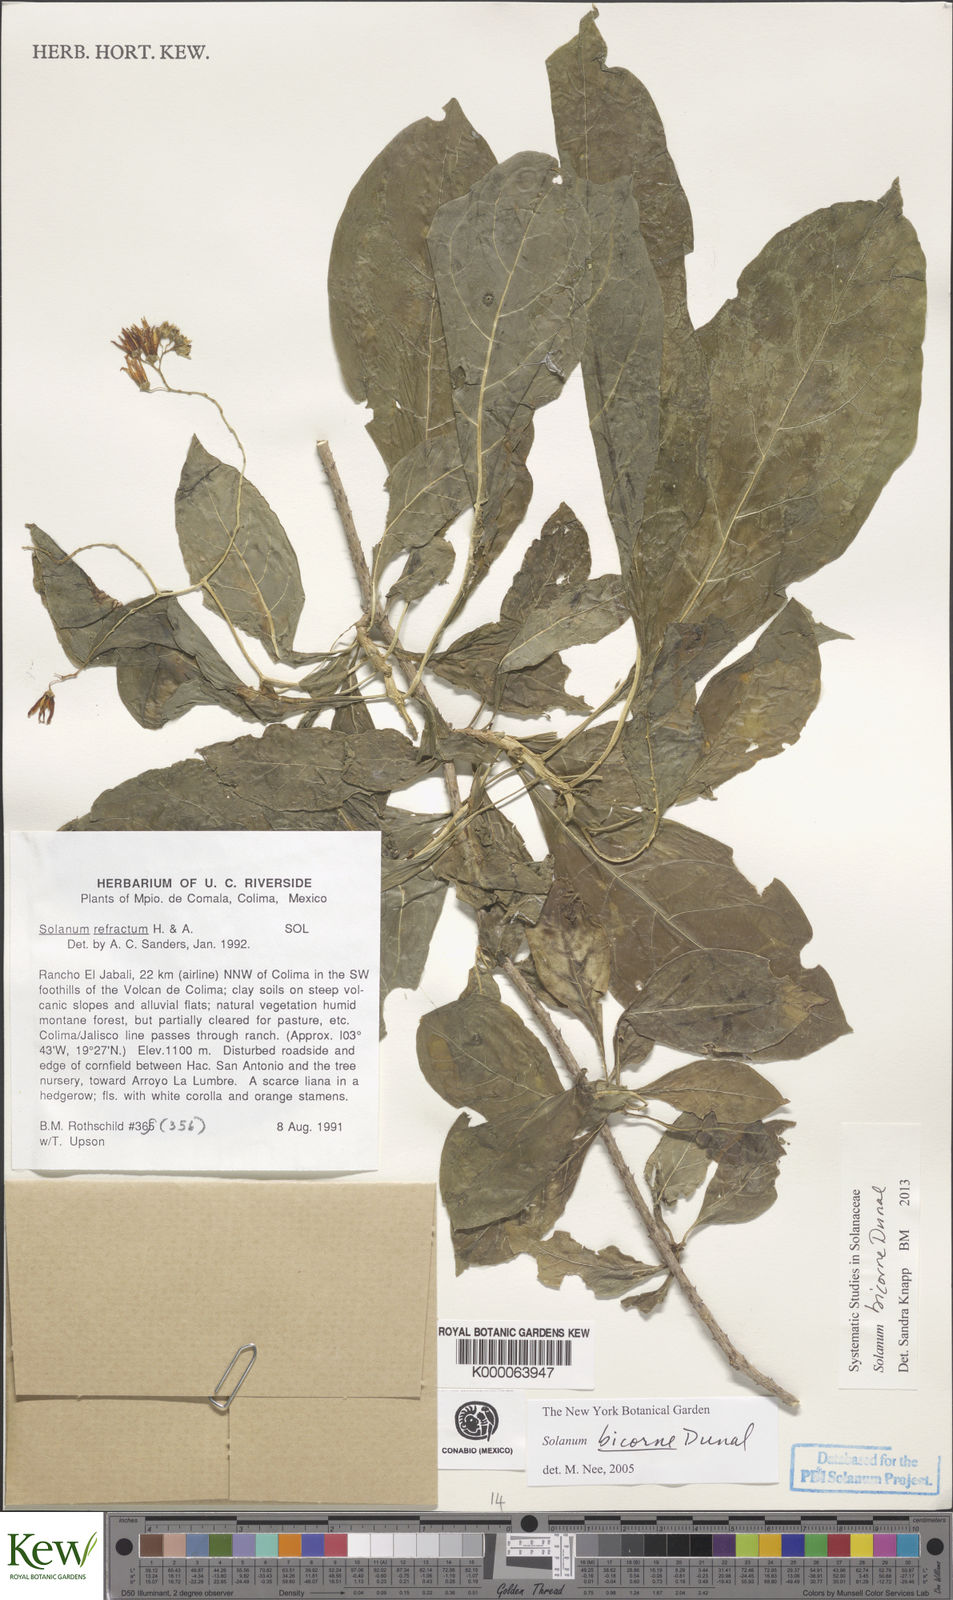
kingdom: Plantae
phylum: Tracheophyta
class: Magnoliopsida
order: Solanales
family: Solanaceae
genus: Solanum
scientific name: Solanum refractum
